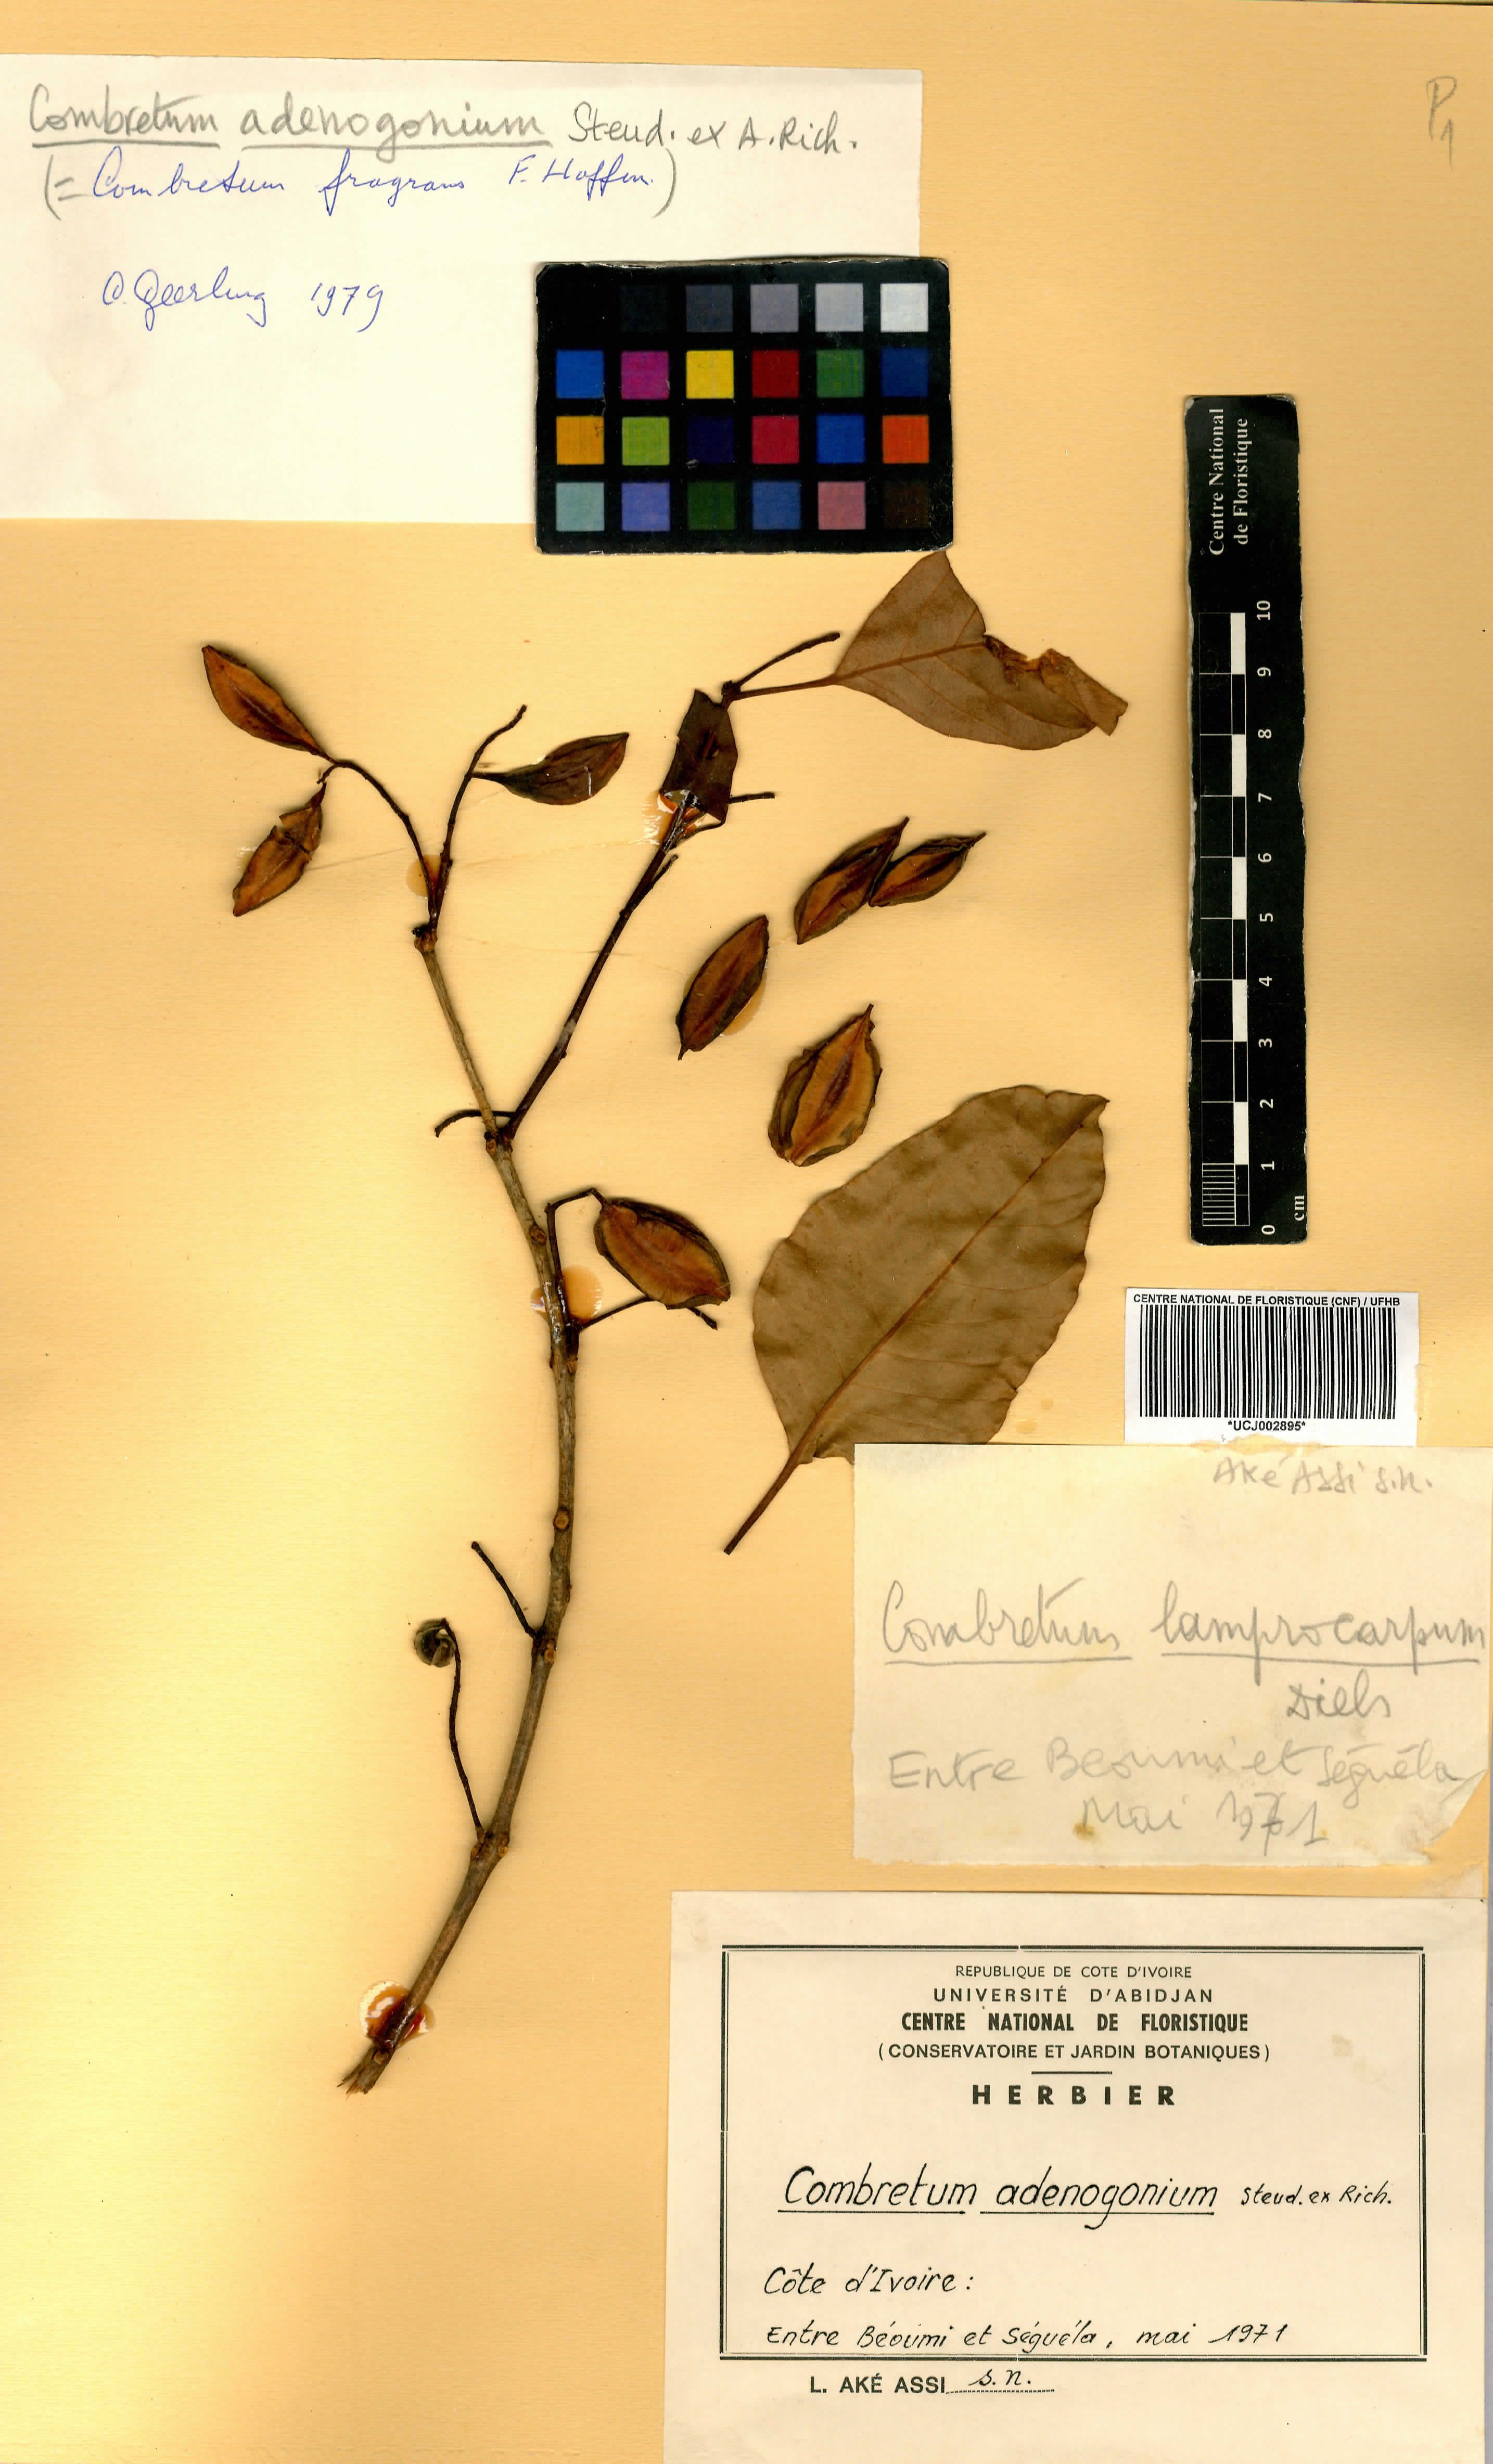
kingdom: Plantae
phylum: Tracheophyta
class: Magnoliopsida
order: Myrtales
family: Combretaceae
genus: Combretum
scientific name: Combretum adenogonium
